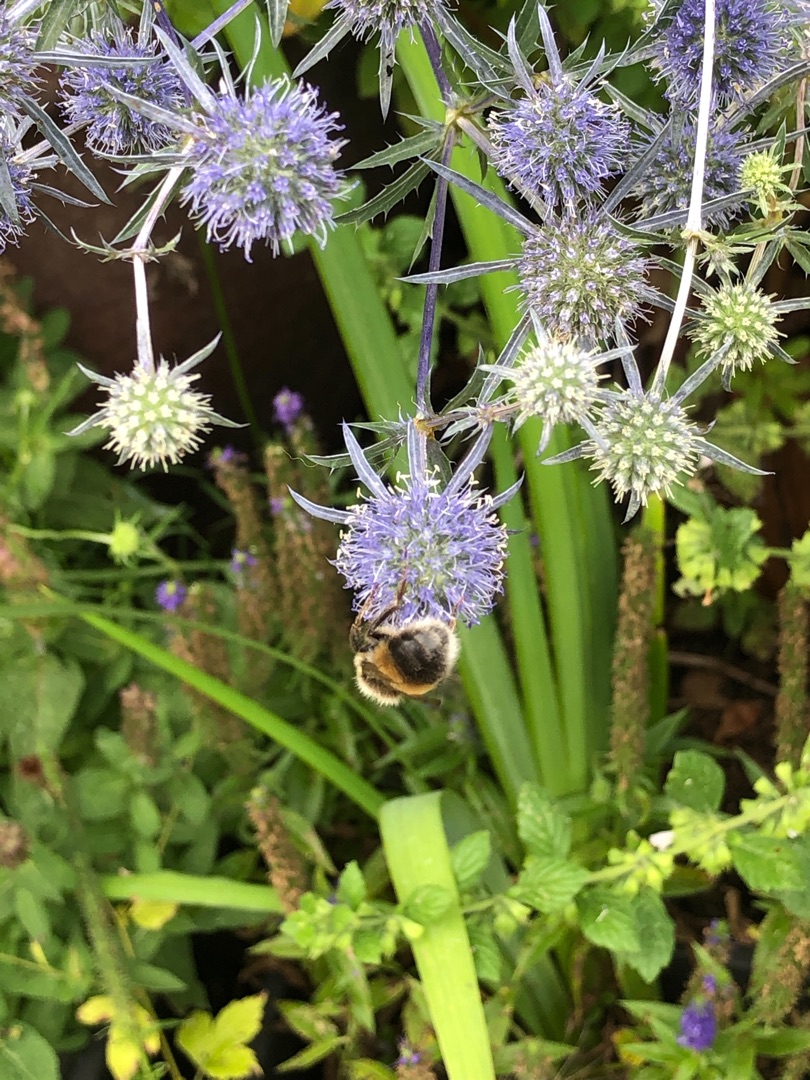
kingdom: Plantae
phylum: Tracheophyta
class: Magnoliopsida
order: Apiales
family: Apiaceae
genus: Eryngium
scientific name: Eryngium planum
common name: Russisk mandstro
